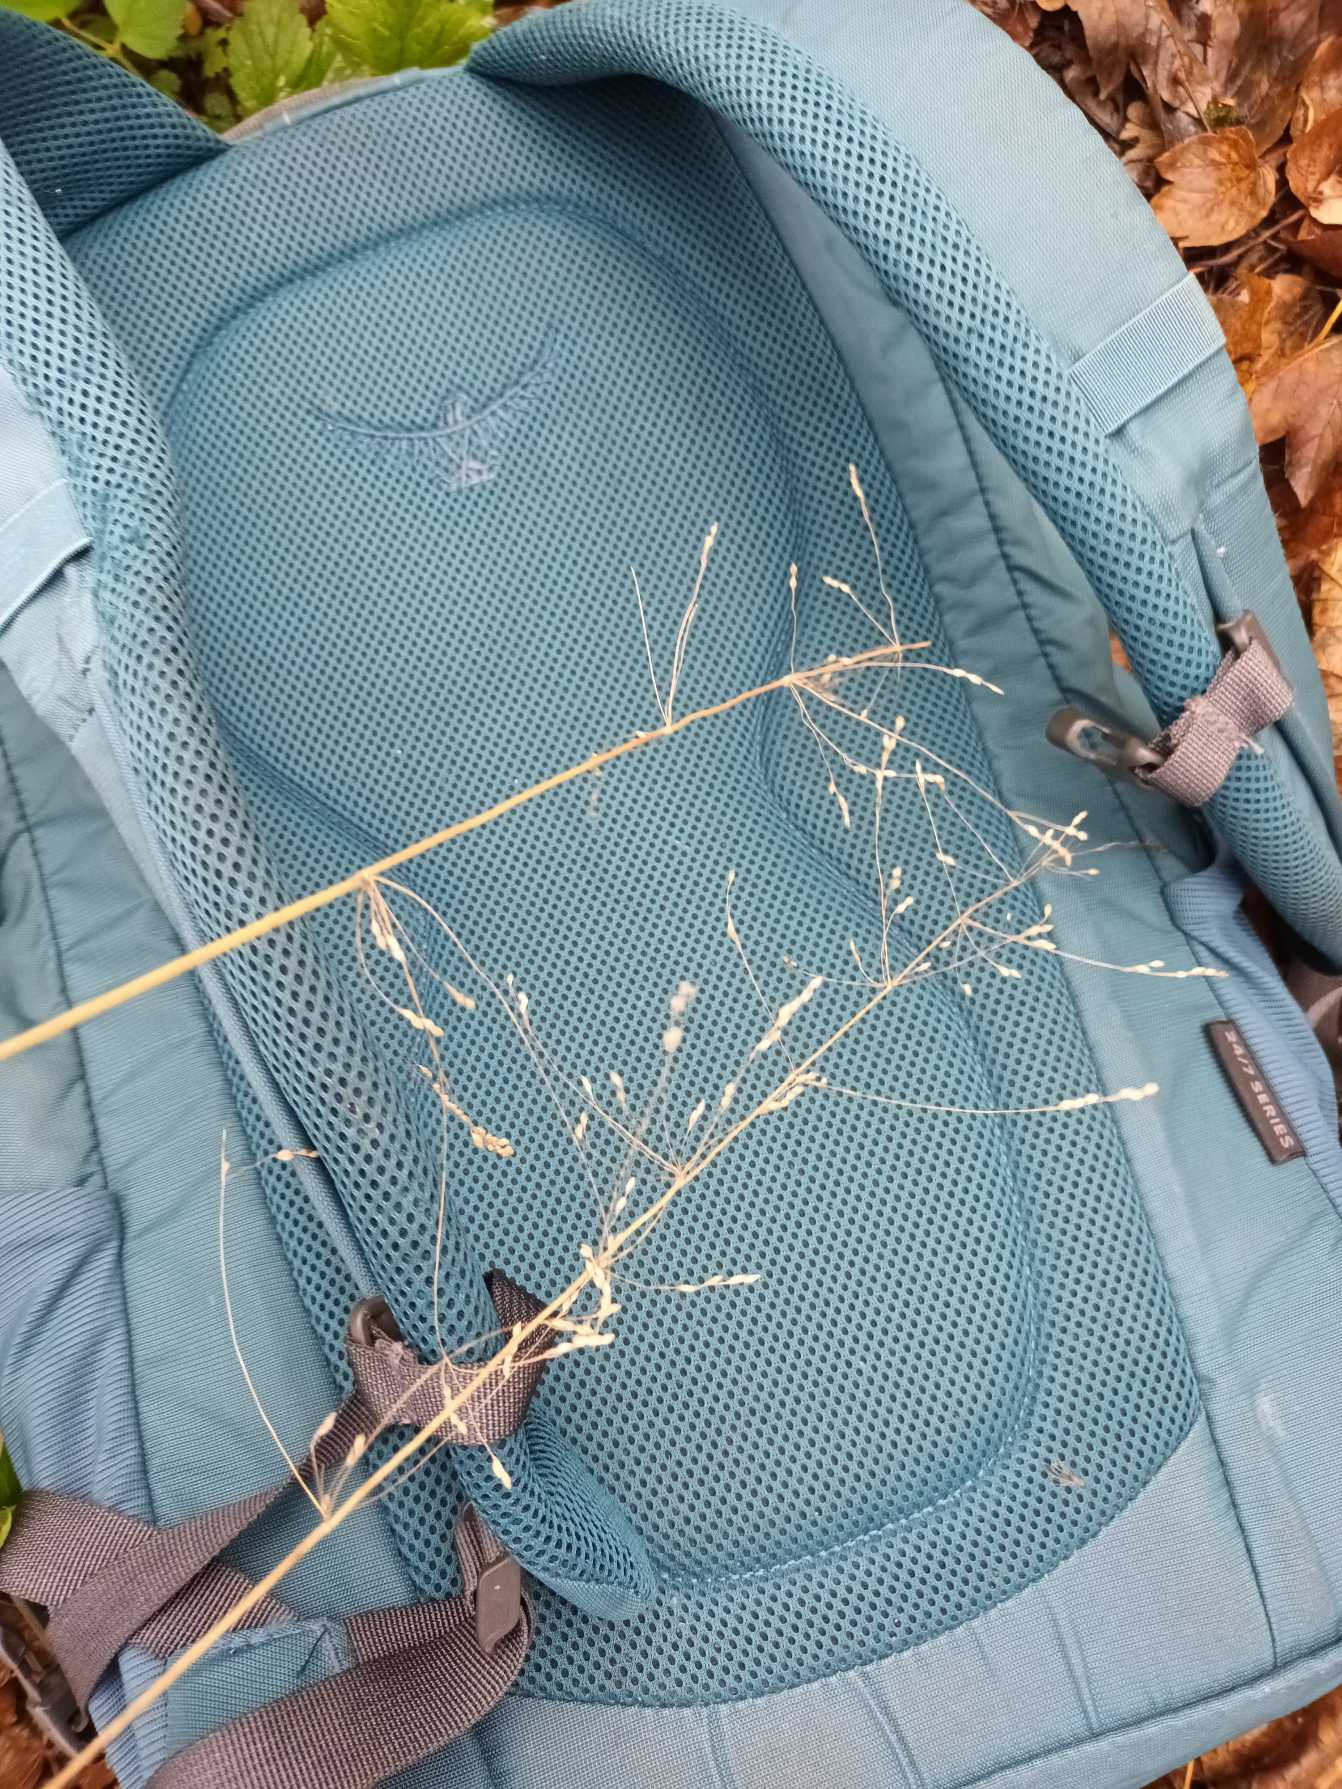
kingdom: Plantae
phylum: Tracheophyta
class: Liliopsida
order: Poales
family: Poaceae
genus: Milium
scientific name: Milium effusum
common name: Miliegræs
